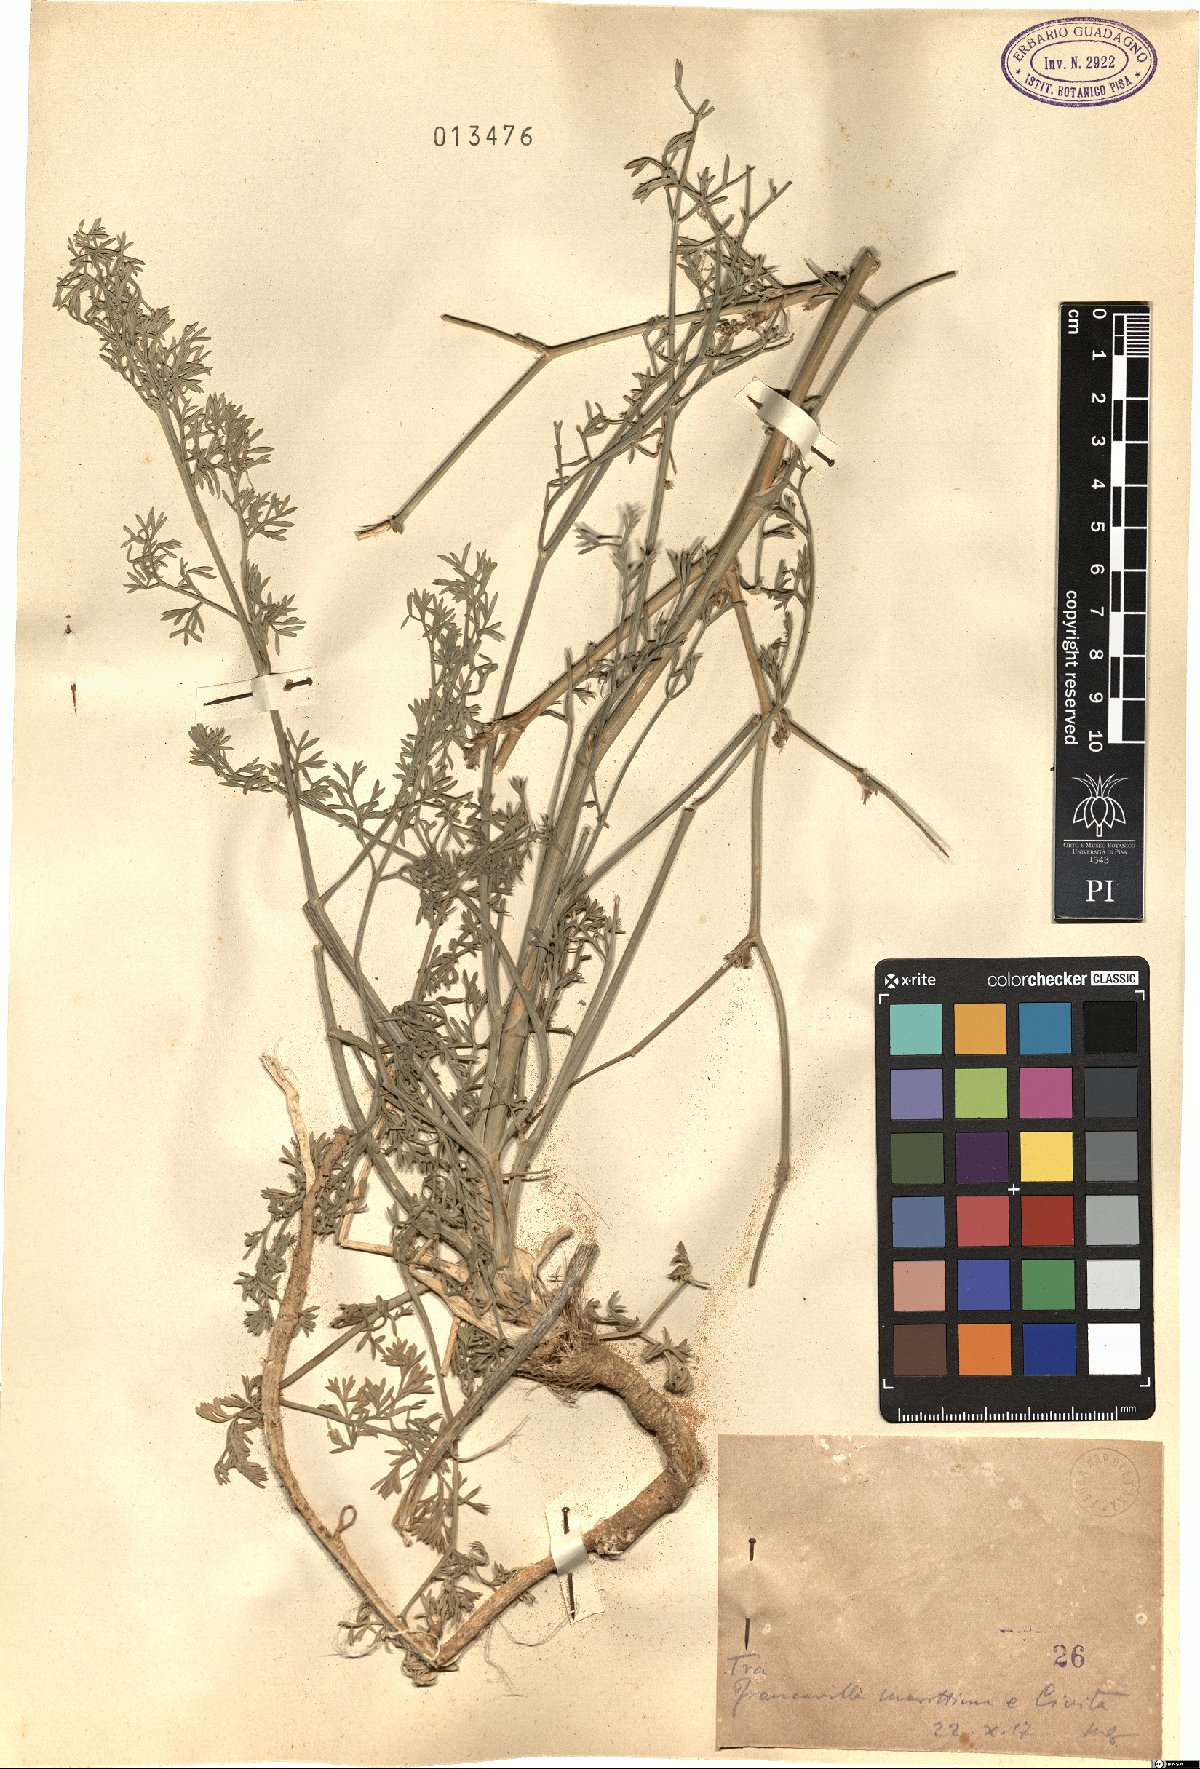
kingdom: Plantae
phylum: Tracheophyta
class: Magnoliopsida
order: Apiales
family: Apiaceae
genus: Seseli
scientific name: Seseli
